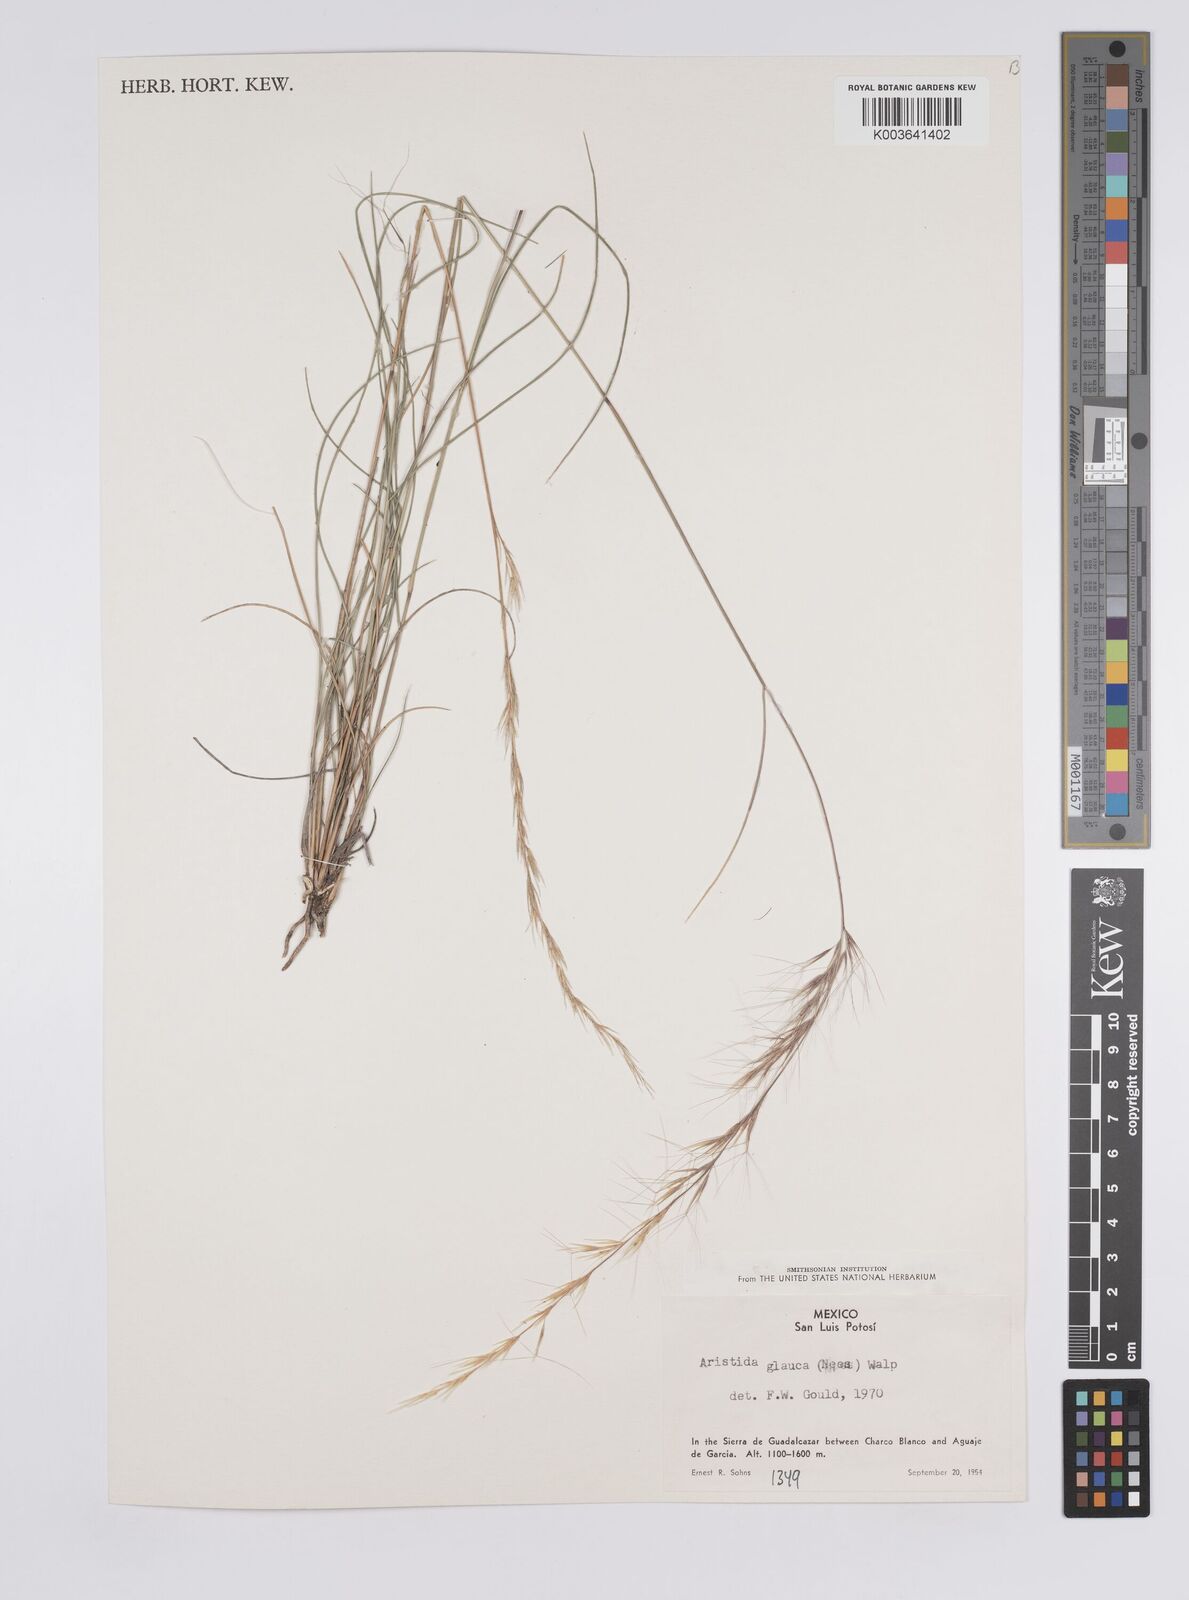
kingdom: Plantae
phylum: Tracheophyta
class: Liliopsida
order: Poales
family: Poaceae
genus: Aristida
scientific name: Aristida purpurea
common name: Purple threeawn
